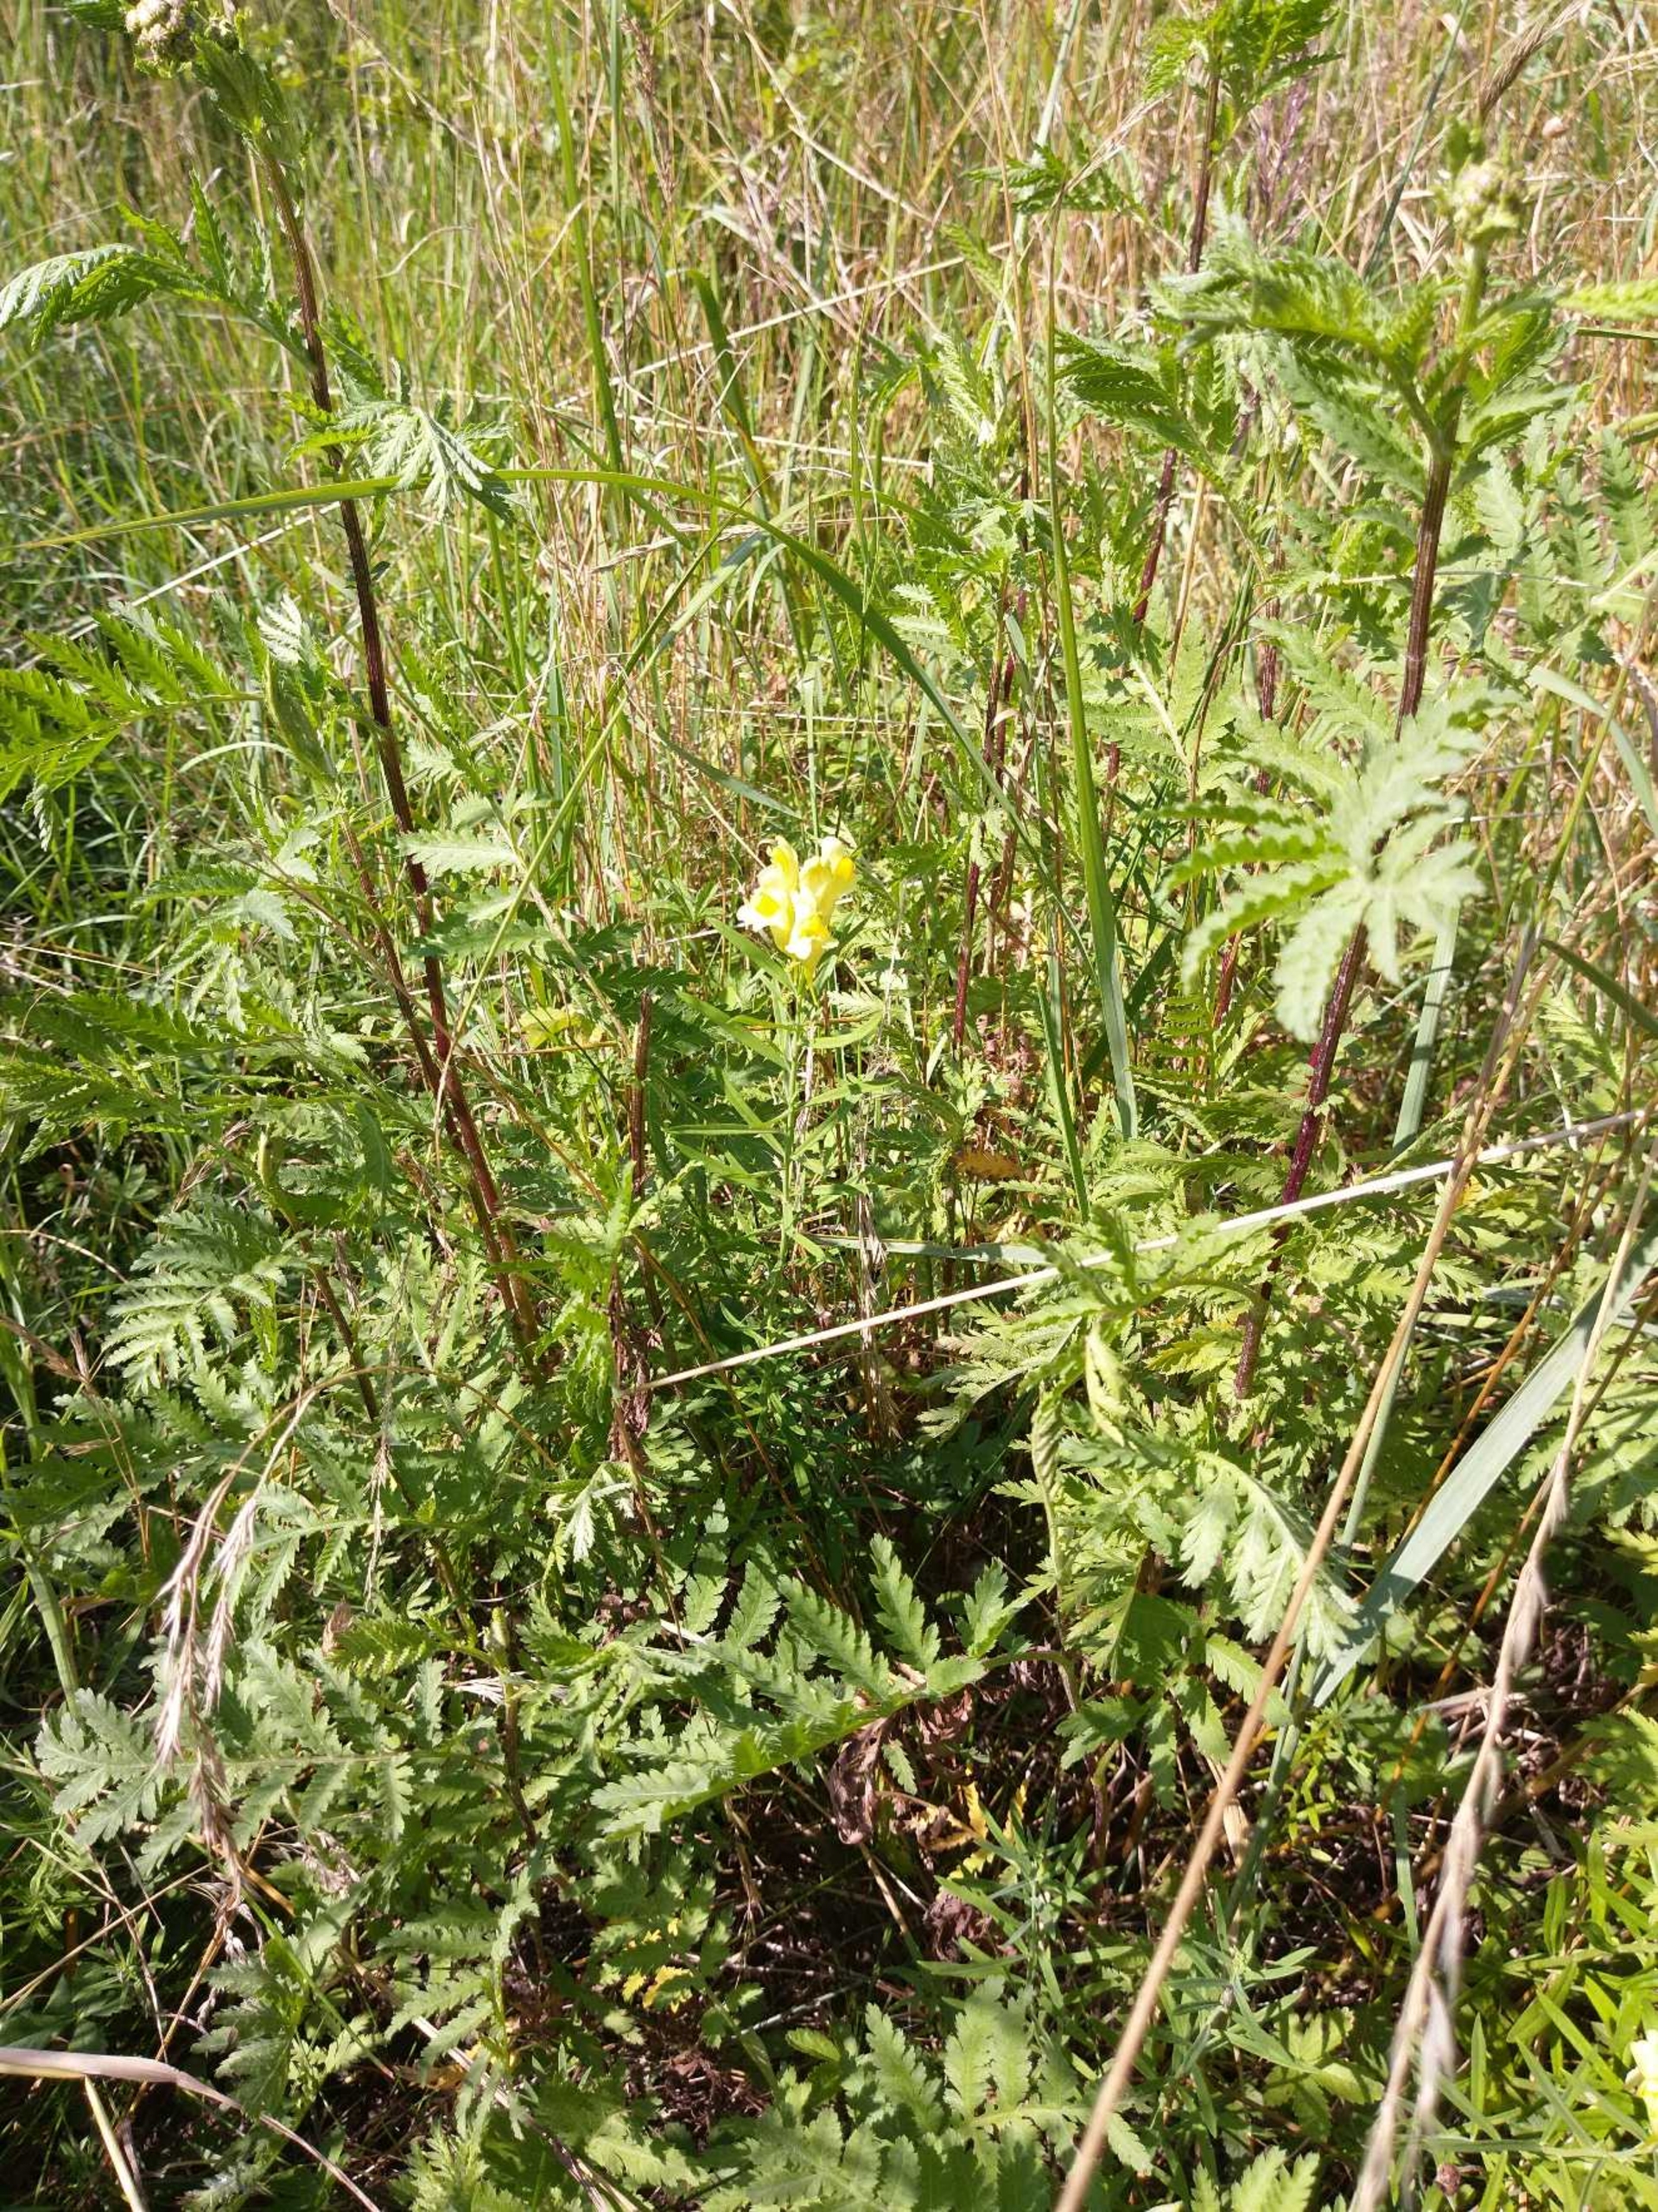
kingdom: Plantae
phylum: Tracheophyta
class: Magnoliopsida
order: Lamiales
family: Plantaginaceae
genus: Linaria
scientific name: Linaria vulgaris
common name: Almindelig torskemund
